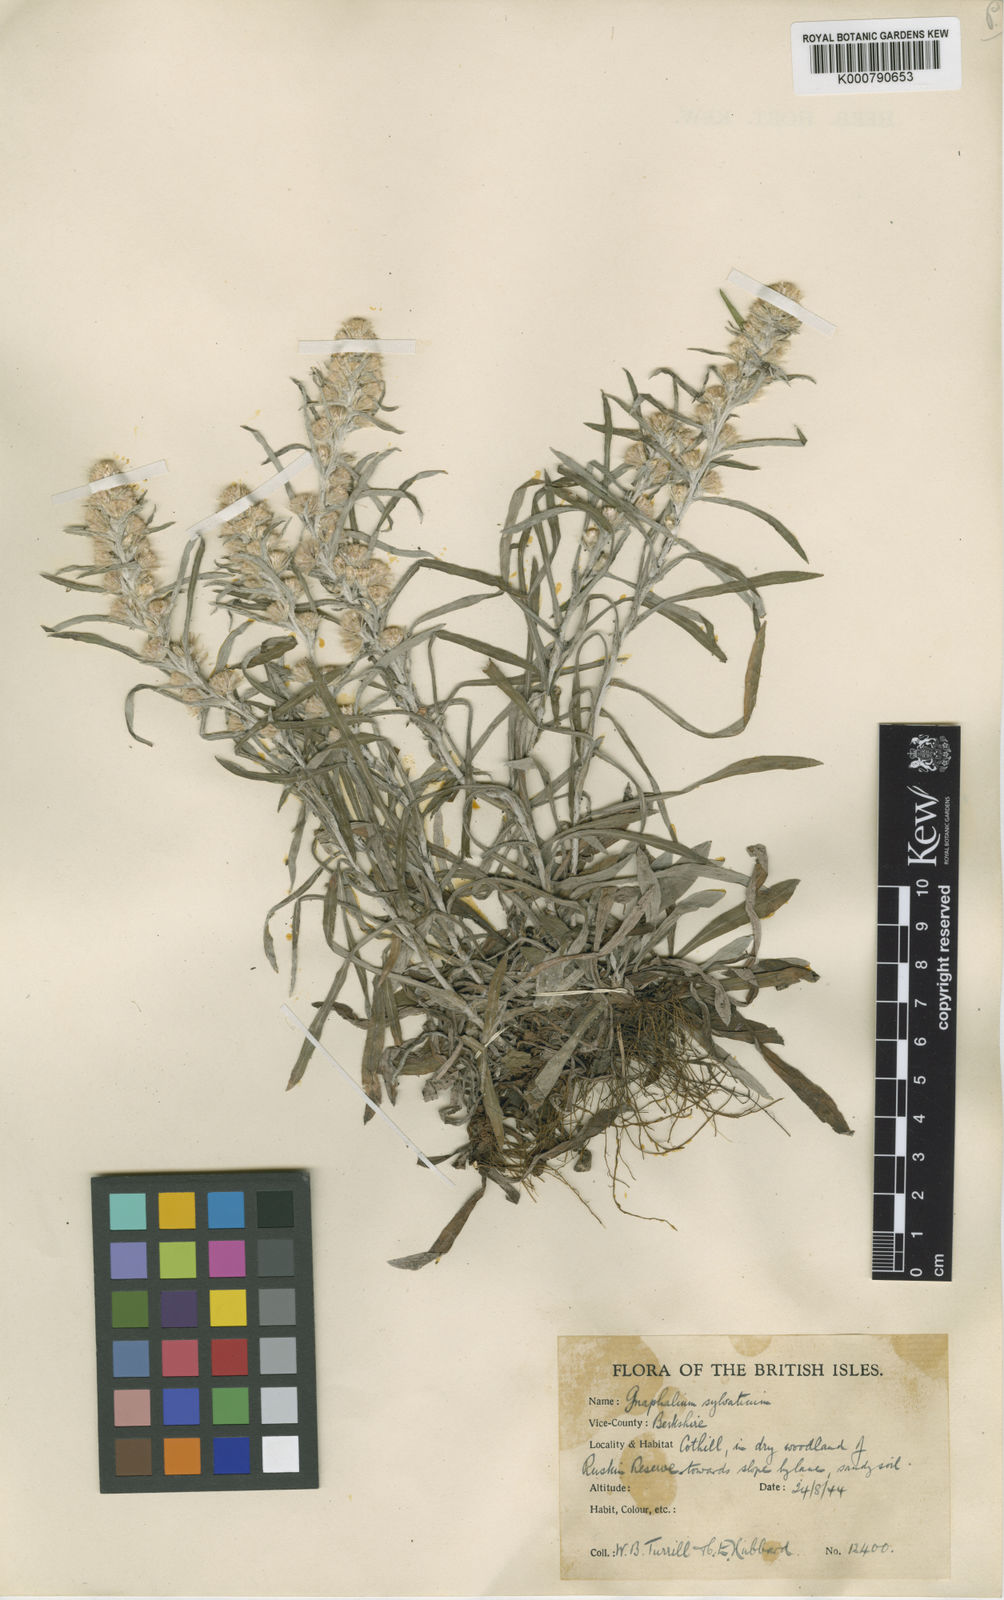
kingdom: Plantae
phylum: Tracheophyta
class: Magnoliopsida
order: Asterales
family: Asteraceae
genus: Omalotheca
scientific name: Omalotheca sylvatica
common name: Heath cudweed
